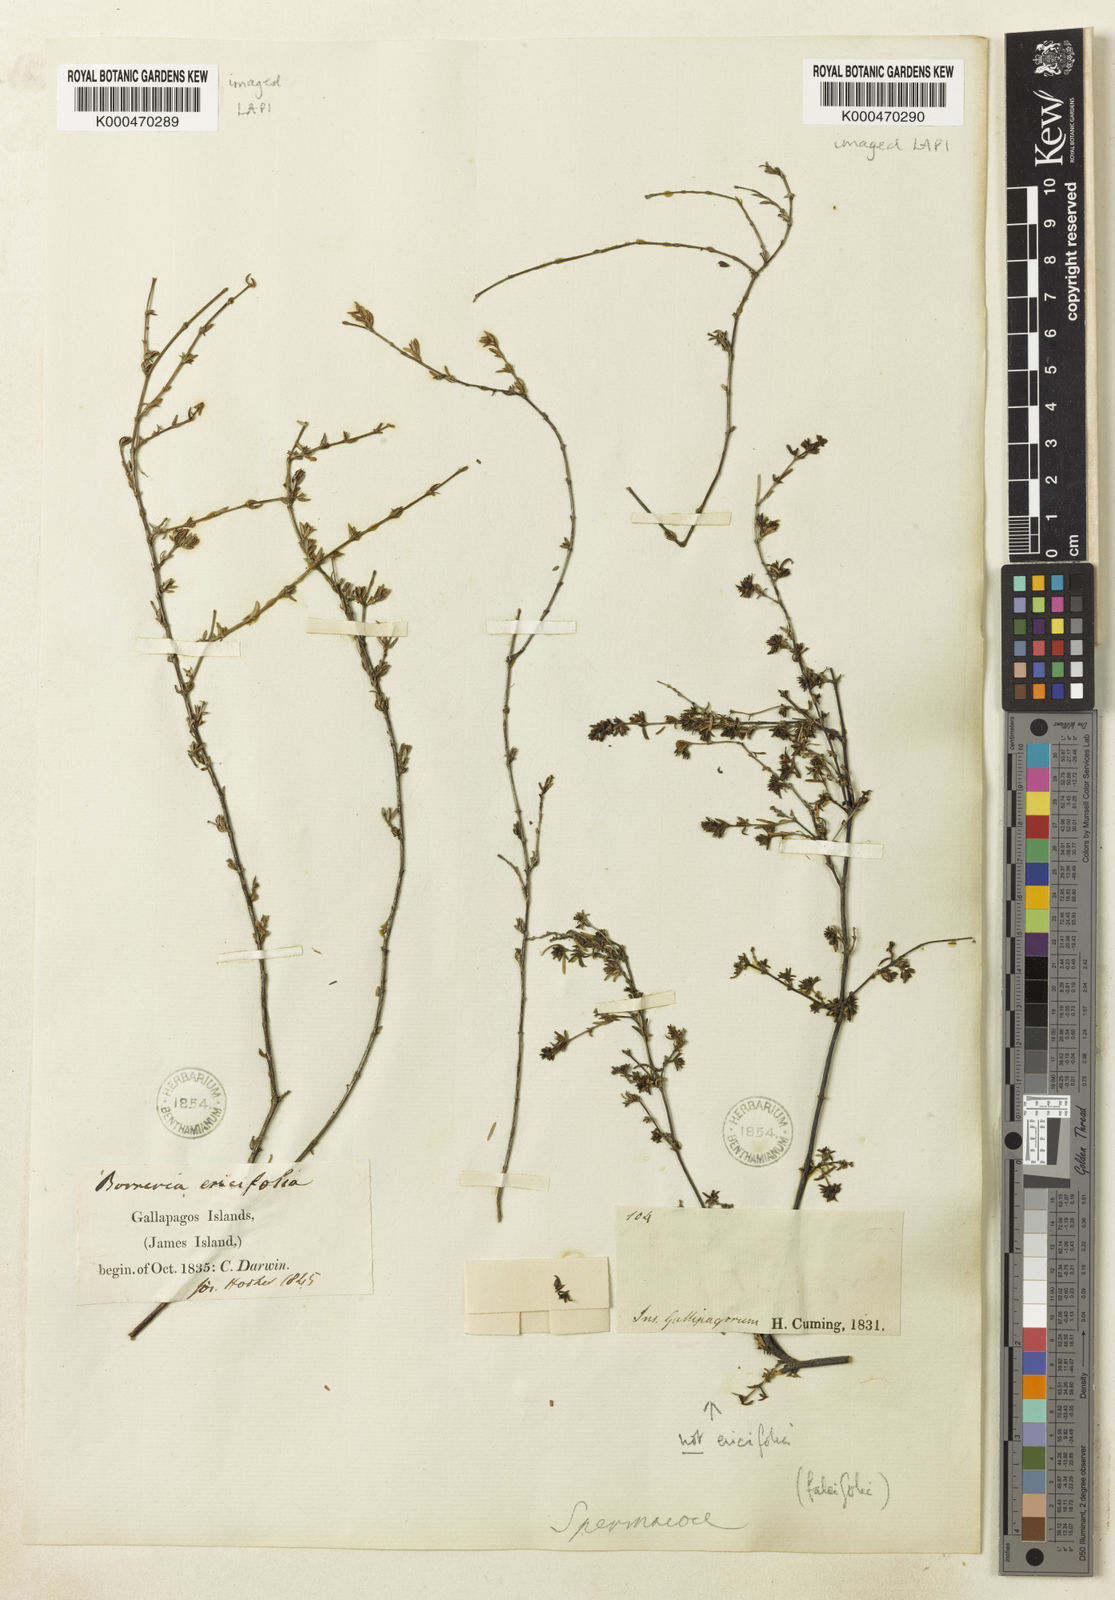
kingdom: Plantae
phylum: Tracheophyta
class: Magnoliopsida
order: Gentianales
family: Rubiaceae
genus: Spermacoce
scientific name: Spermacoce divaricata
